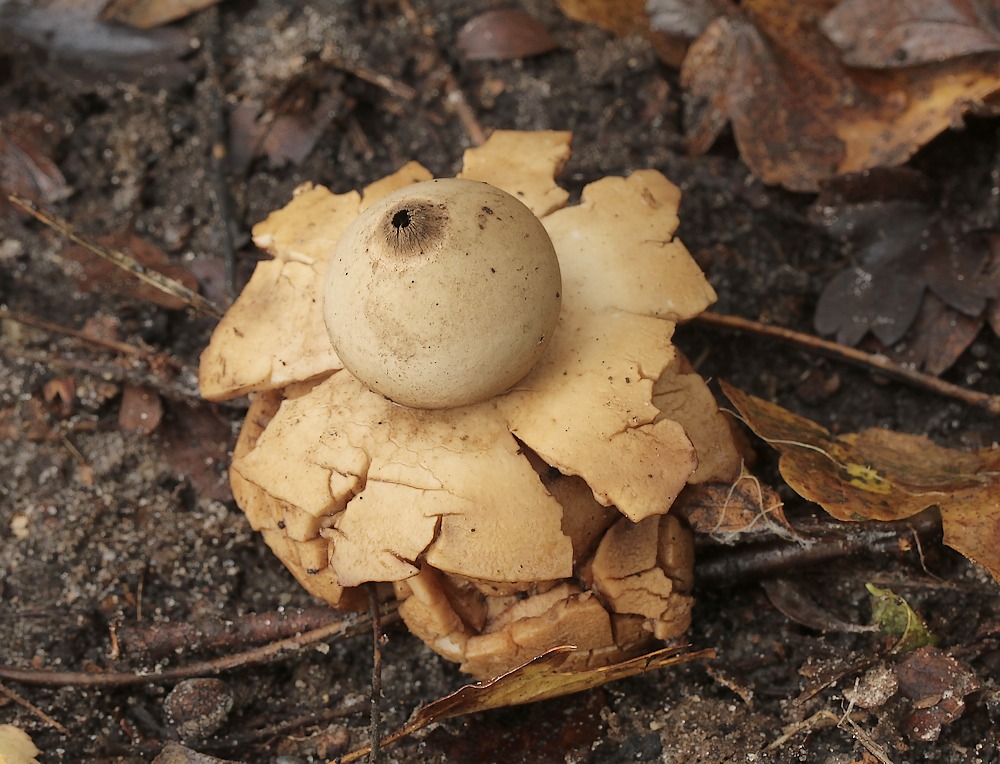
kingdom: Fungi
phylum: Basidiomycota
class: Agaricomycetes
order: Geastrales
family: Geastraceae
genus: Geastrum
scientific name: Geastrum michelianum
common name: kødet stjernebold
